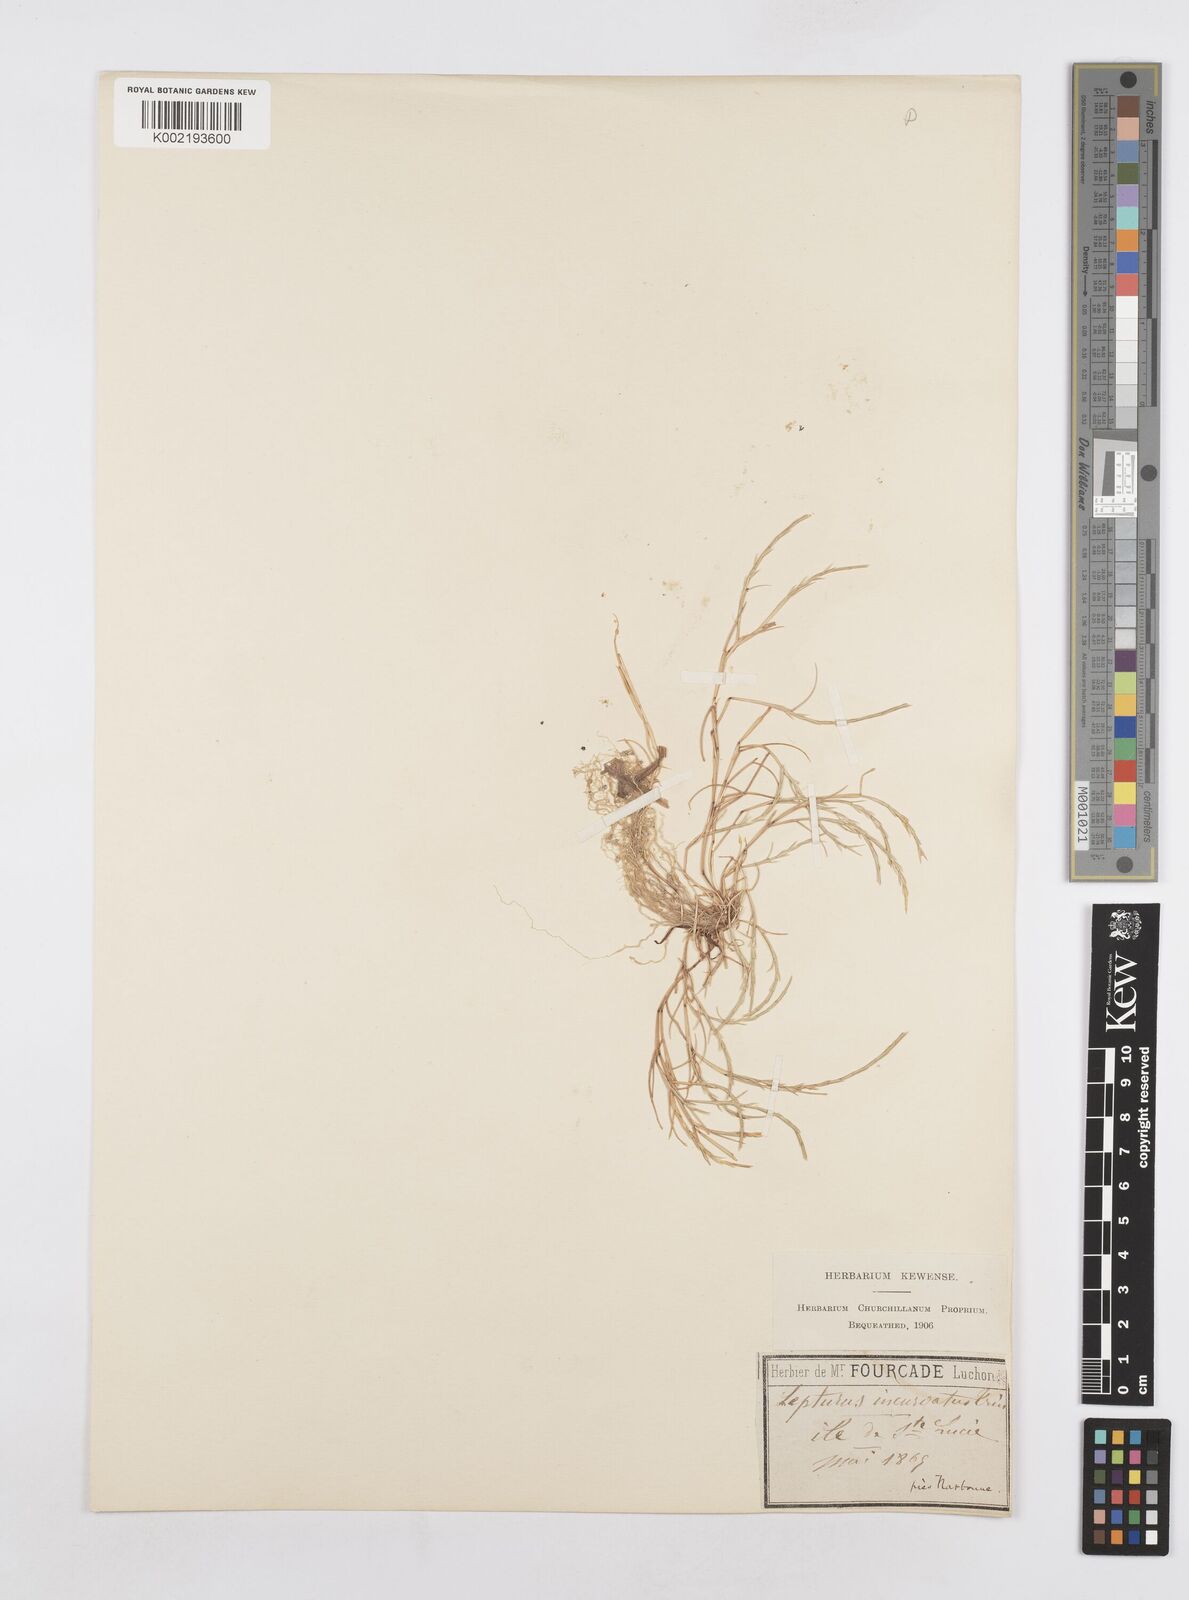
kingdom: Plantae
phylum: Tracheophyta
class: Liliopsida
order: Poales
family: Poaceae
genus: Parapholis
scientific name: Parapholis filiformis
